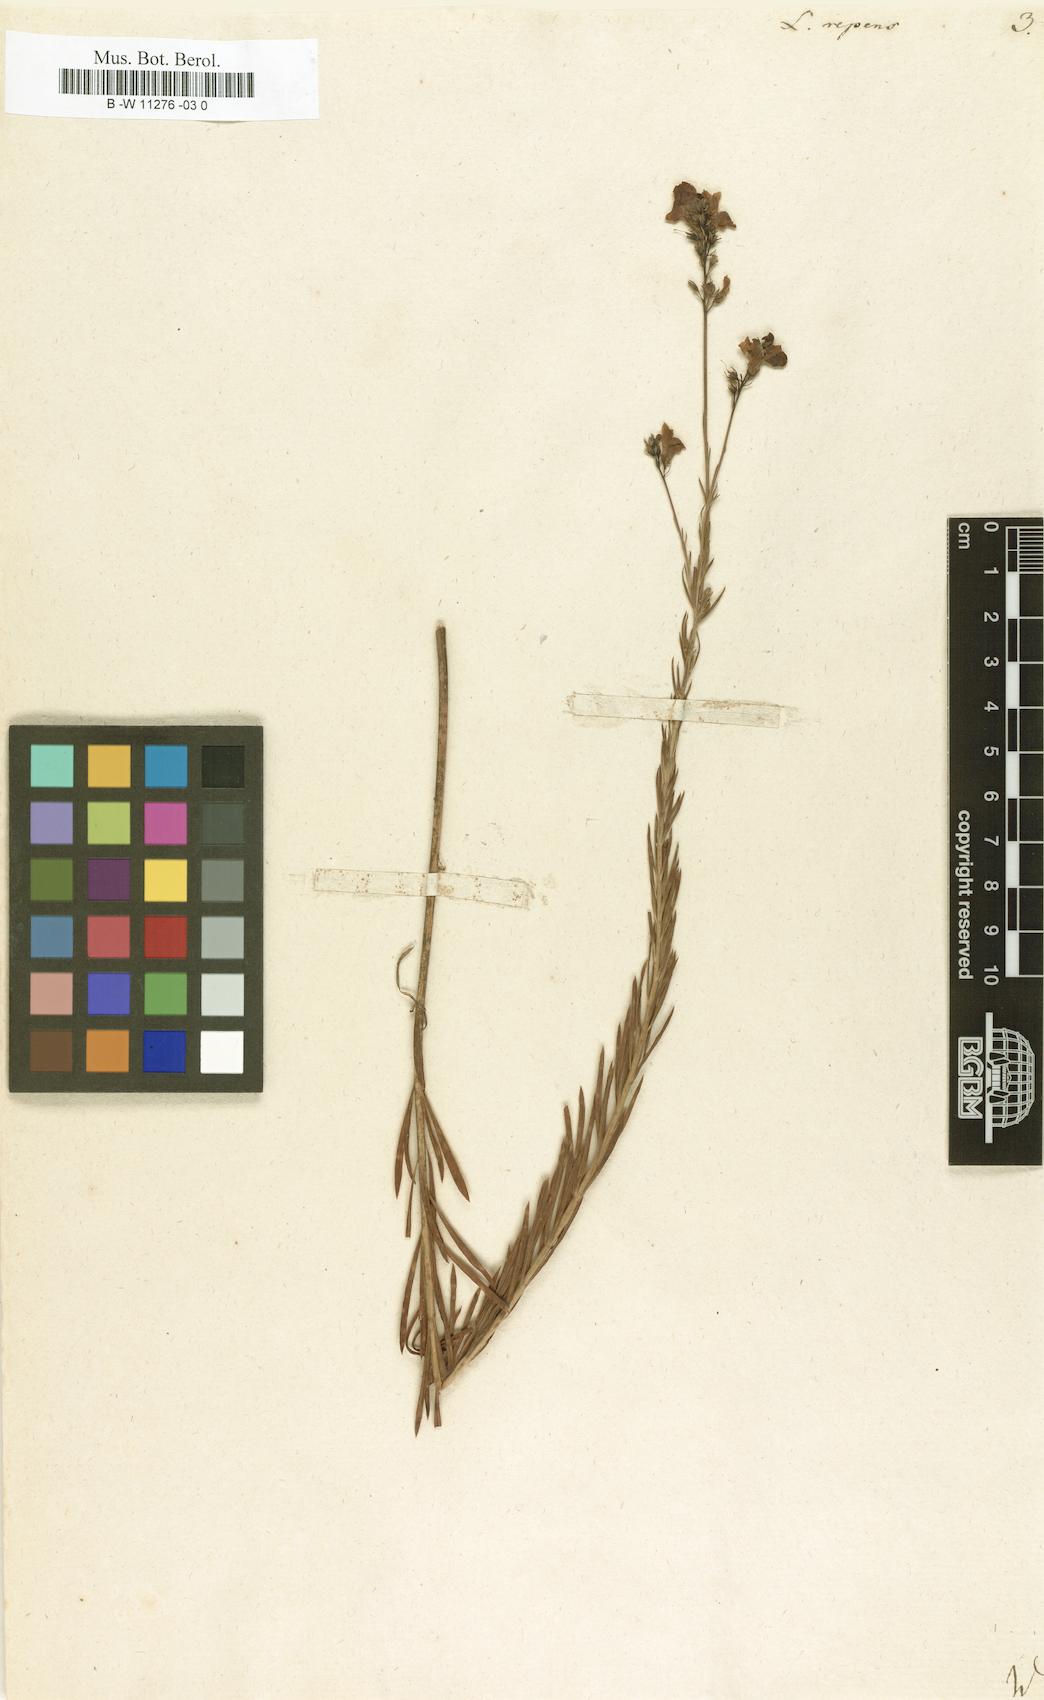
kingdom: Plantae
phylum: Tracheophyta
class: Magnoliopsida
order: Lamiales
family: Plantaginaceae
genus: Linaria
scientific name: Linaria repens
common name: Pale toadflax
